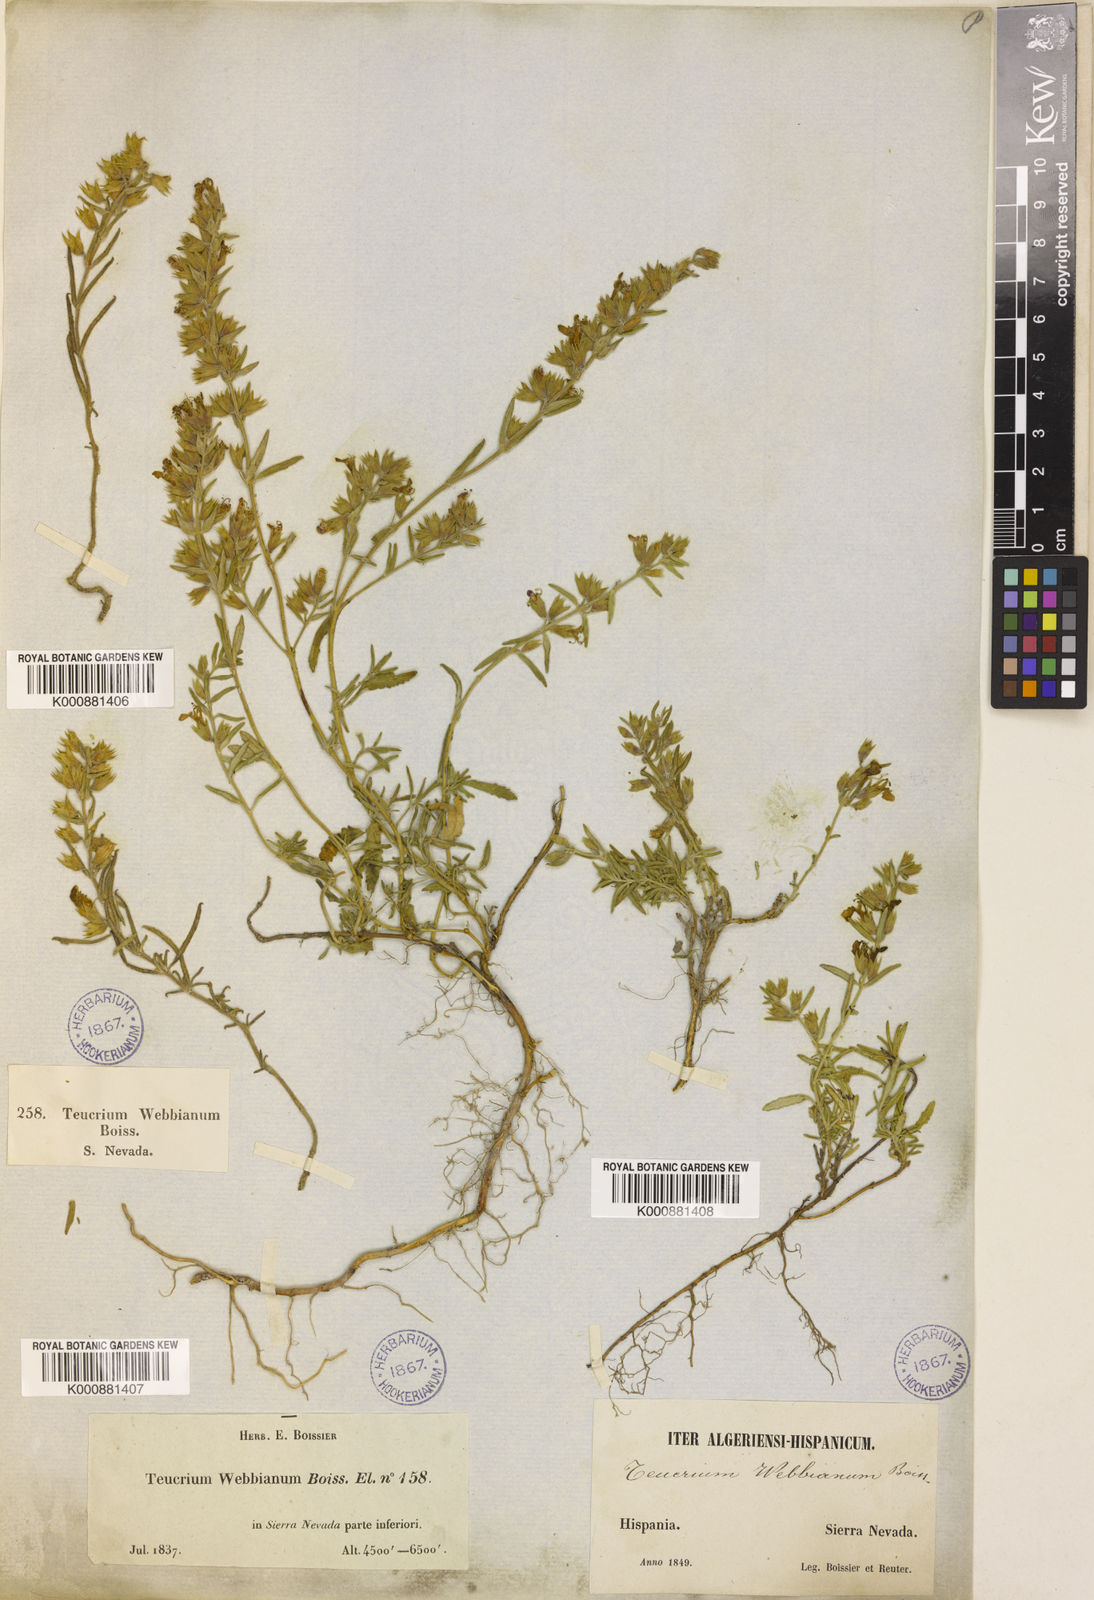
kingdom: Plantae
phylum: Tracheophyta
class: Magnoliopsida
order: Lamiales
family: Lamiaceae
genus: Teucrium
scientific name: Teucrium webbianum
